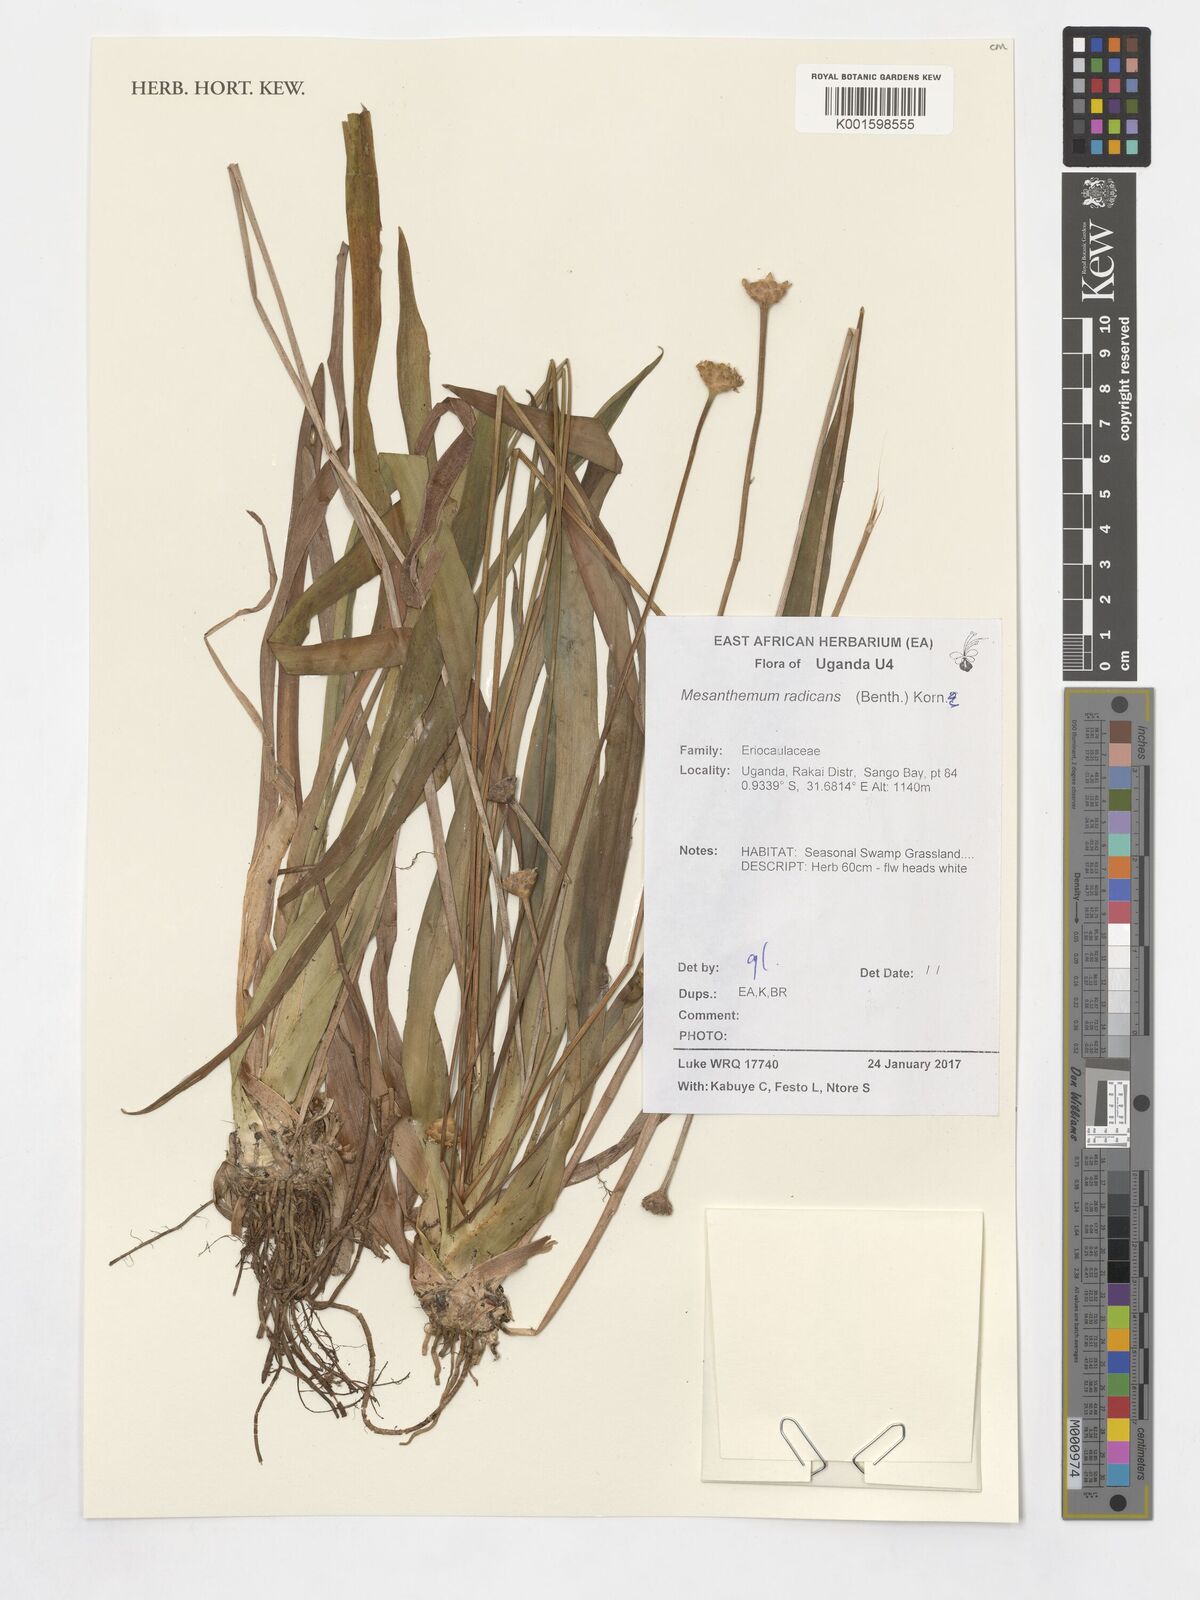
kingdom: Plantae
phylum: Tracheophyta
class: Liliopsida
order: Poales
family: Eriocaulaceae
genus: Mesanthemum
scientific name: Mesanthemum radicans
